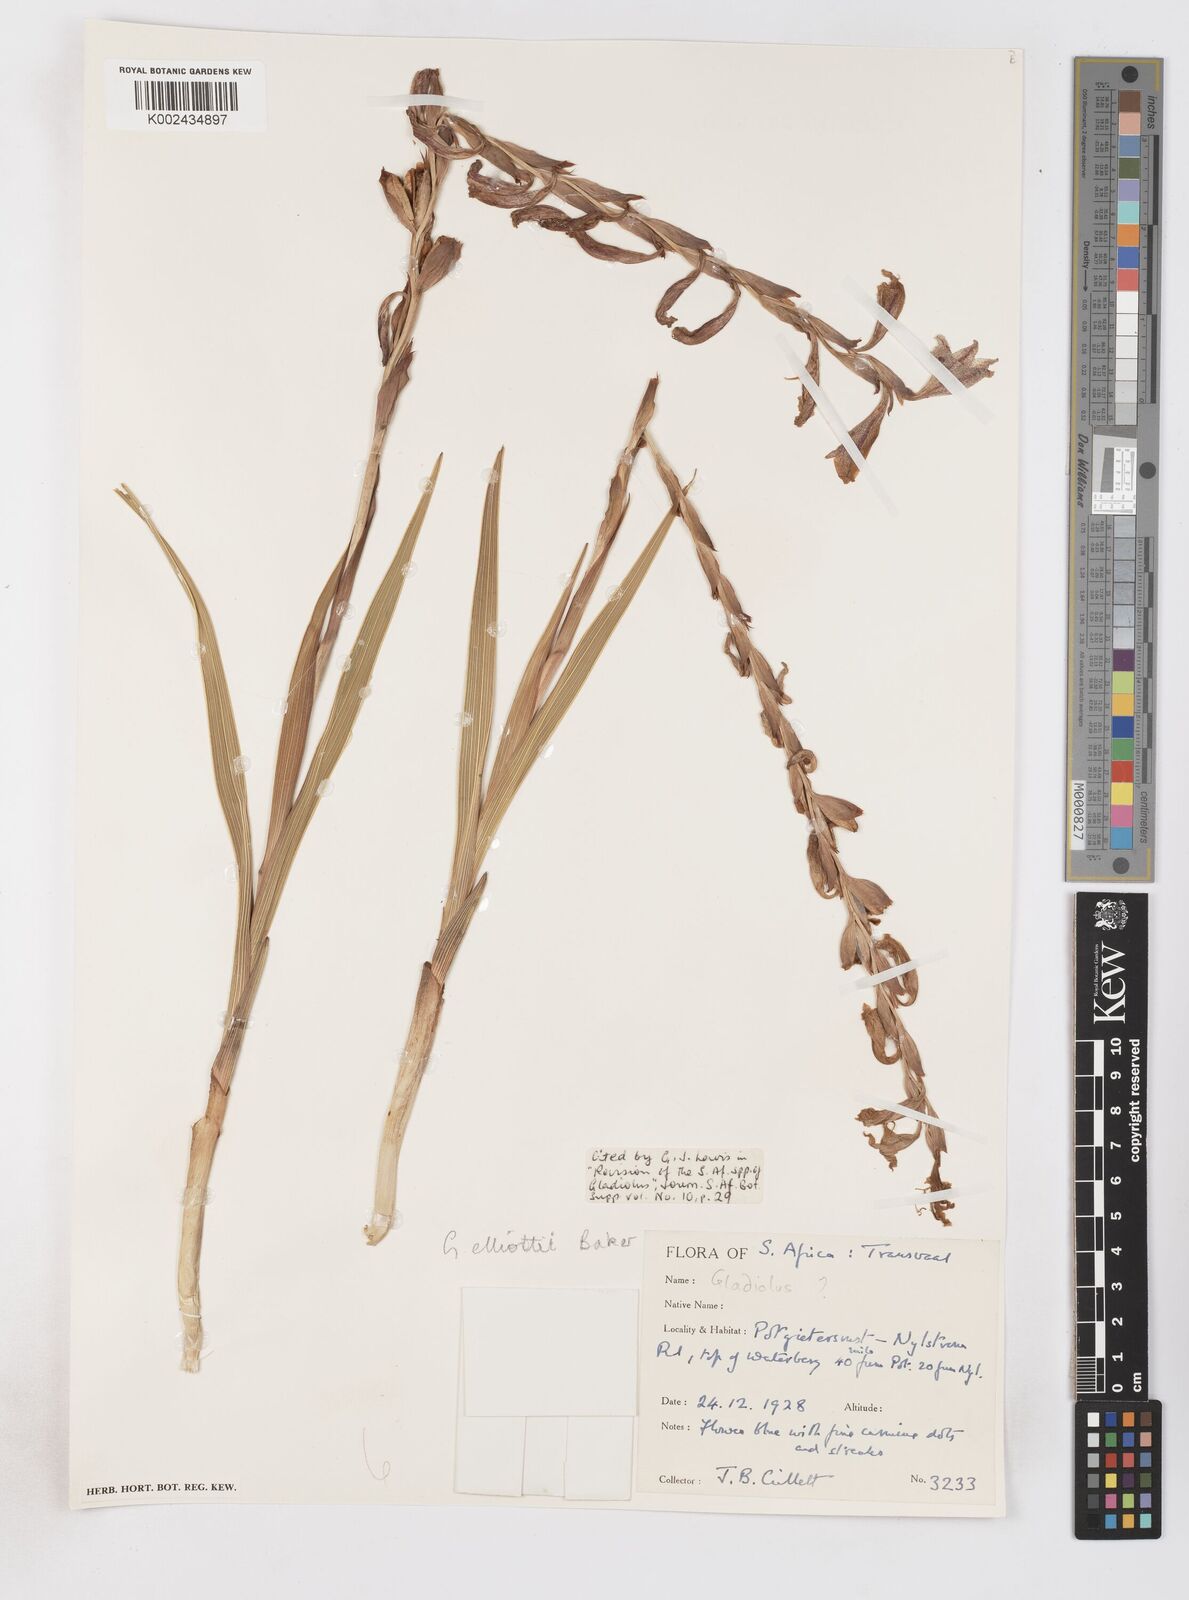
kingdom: Plantae
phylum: Tracheophyta
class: Liliopsida
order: Asparagales
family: Iridaceae
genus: Gladiolus
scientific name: Gladiolus elliotii
